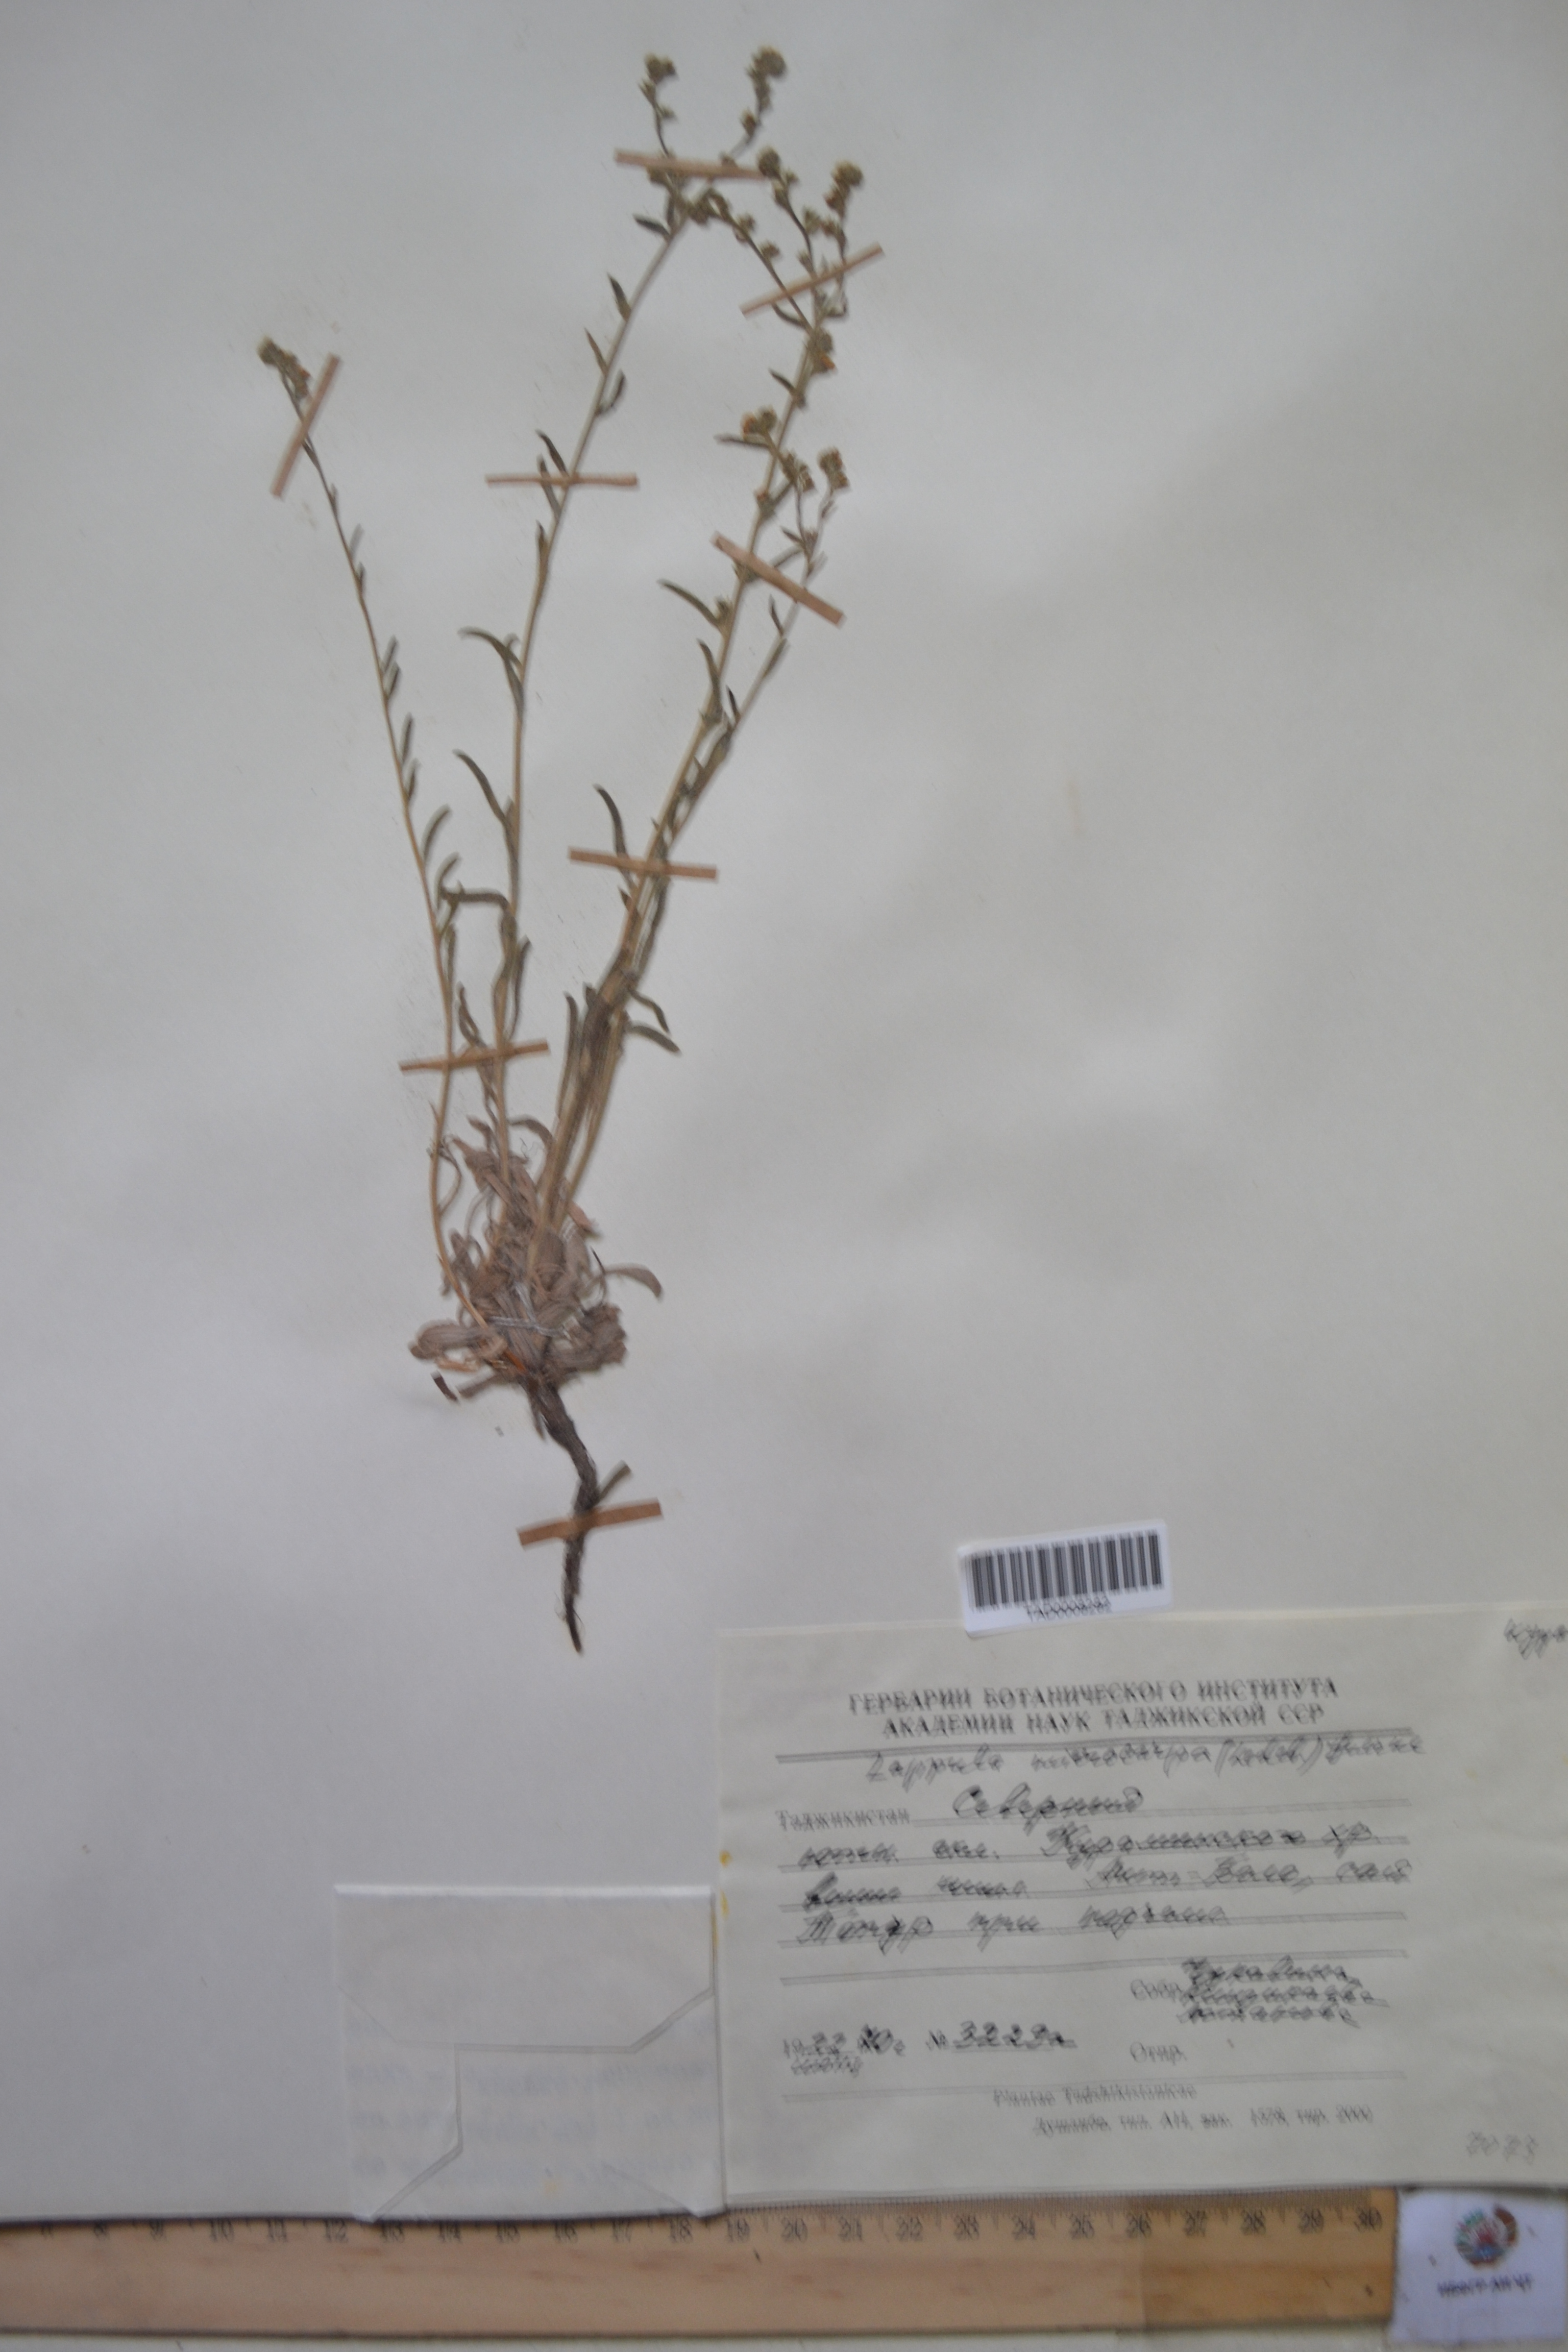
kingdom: Plantae
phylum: Tracheophyta
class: Magnoliopsida
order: Boraginales
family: Boraginaceae
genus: Lappula
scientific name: Lappula microcarpa
